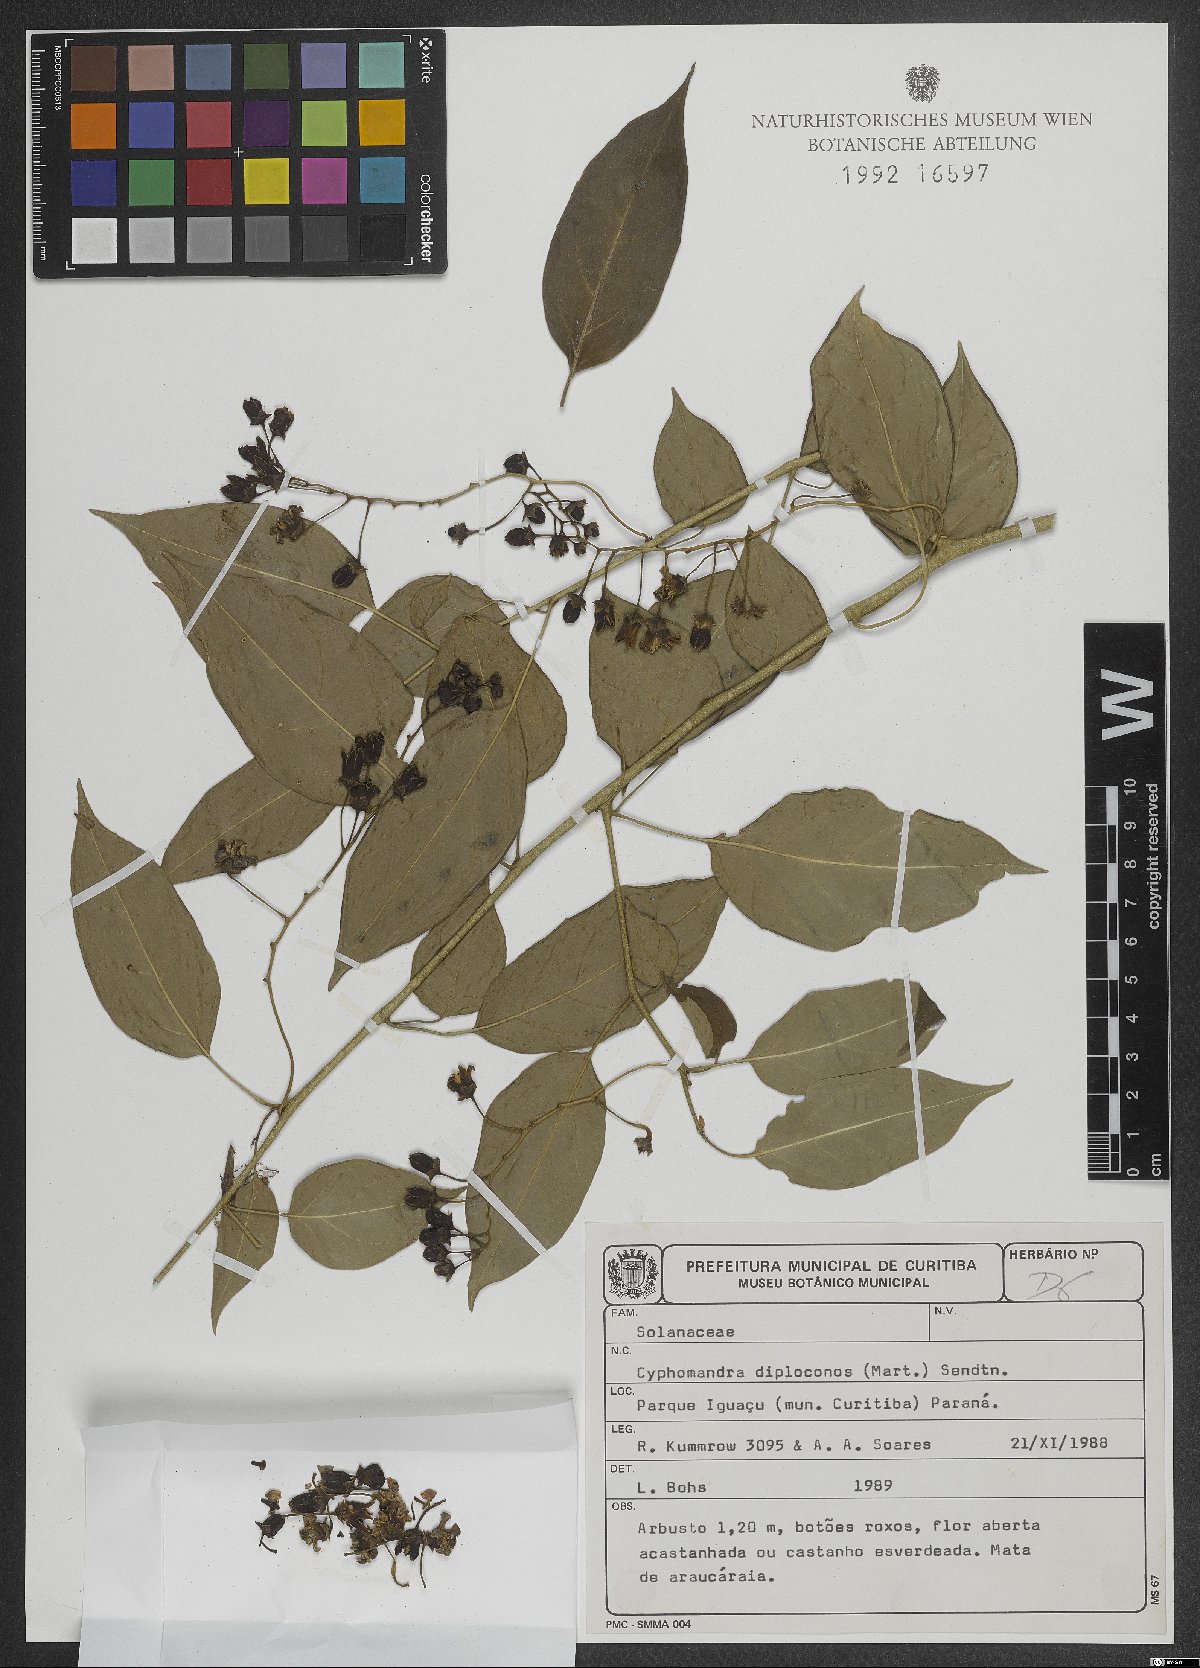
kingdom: Plantae
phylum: Tracheophyta
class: Magnoliopsida
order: Solanales
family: Solanaceae
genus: Solanum
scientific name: Solanum diploconos
